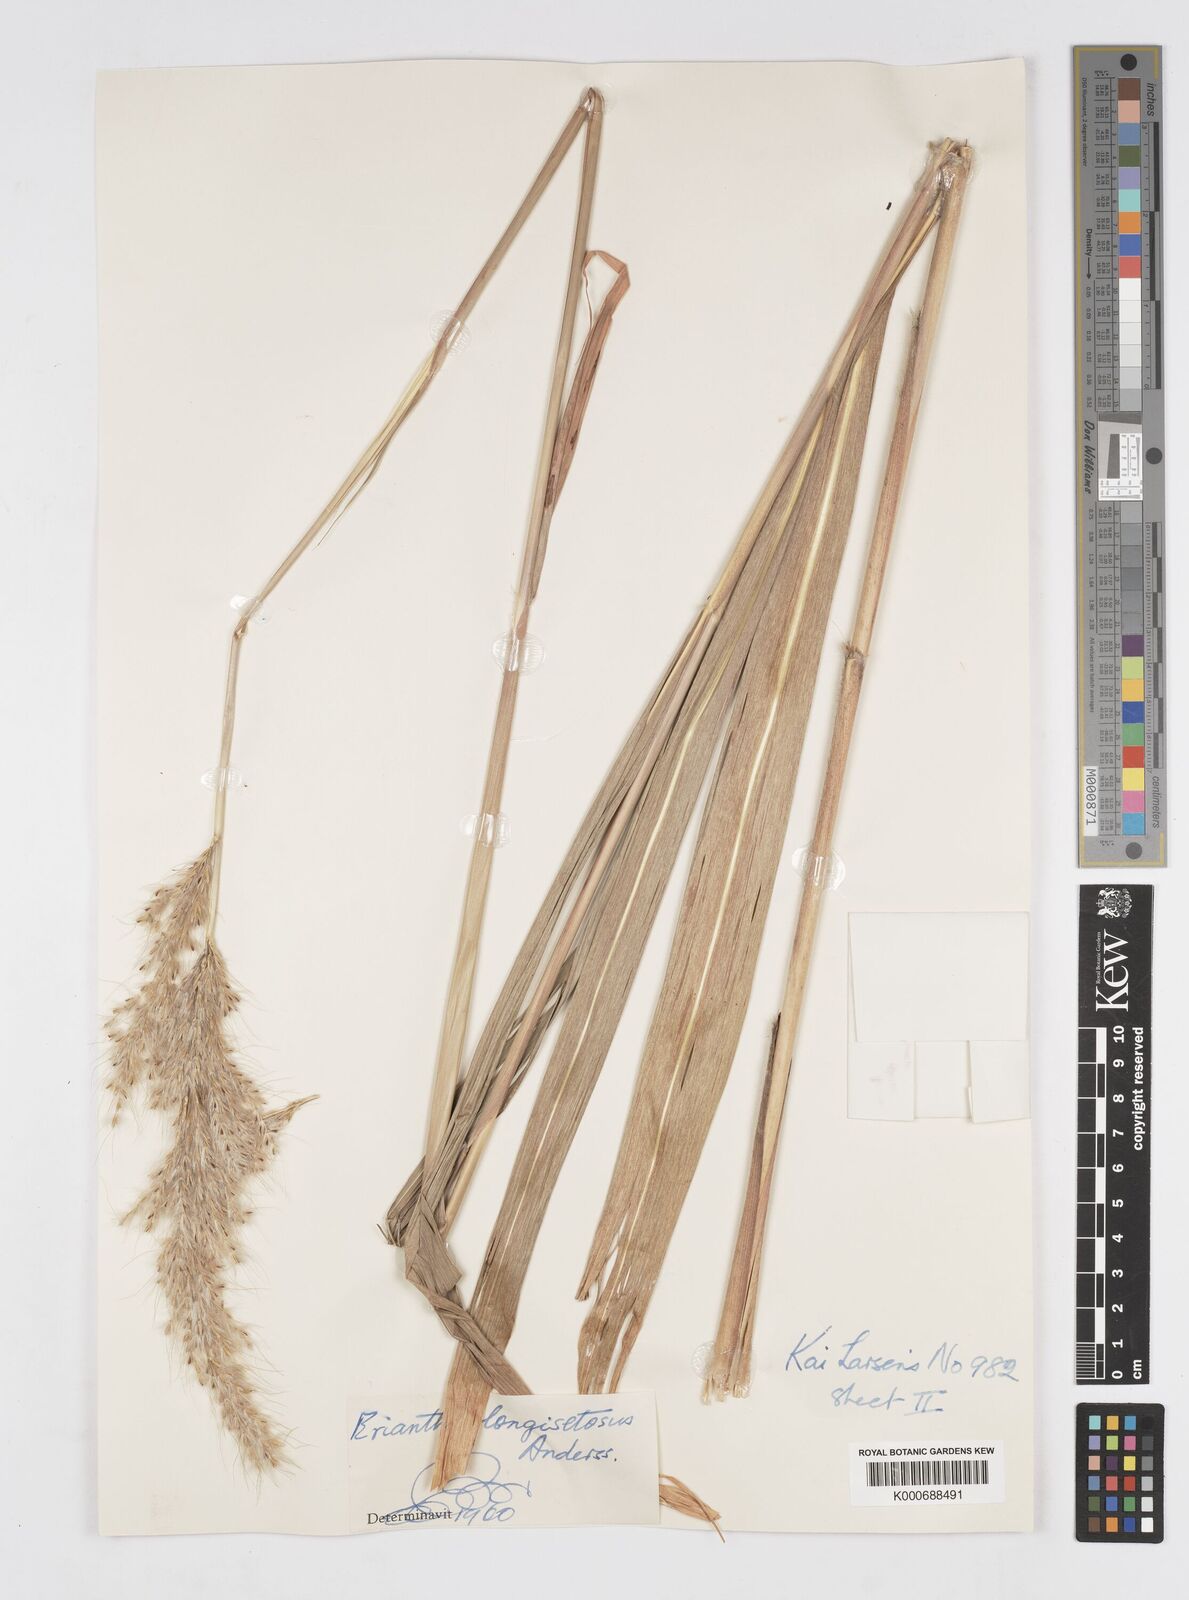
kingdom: Plantae
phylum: Tracheophyta
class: Liliopsida
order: Poales
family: Poaceae
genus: Saccharum
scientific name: Saccharum
